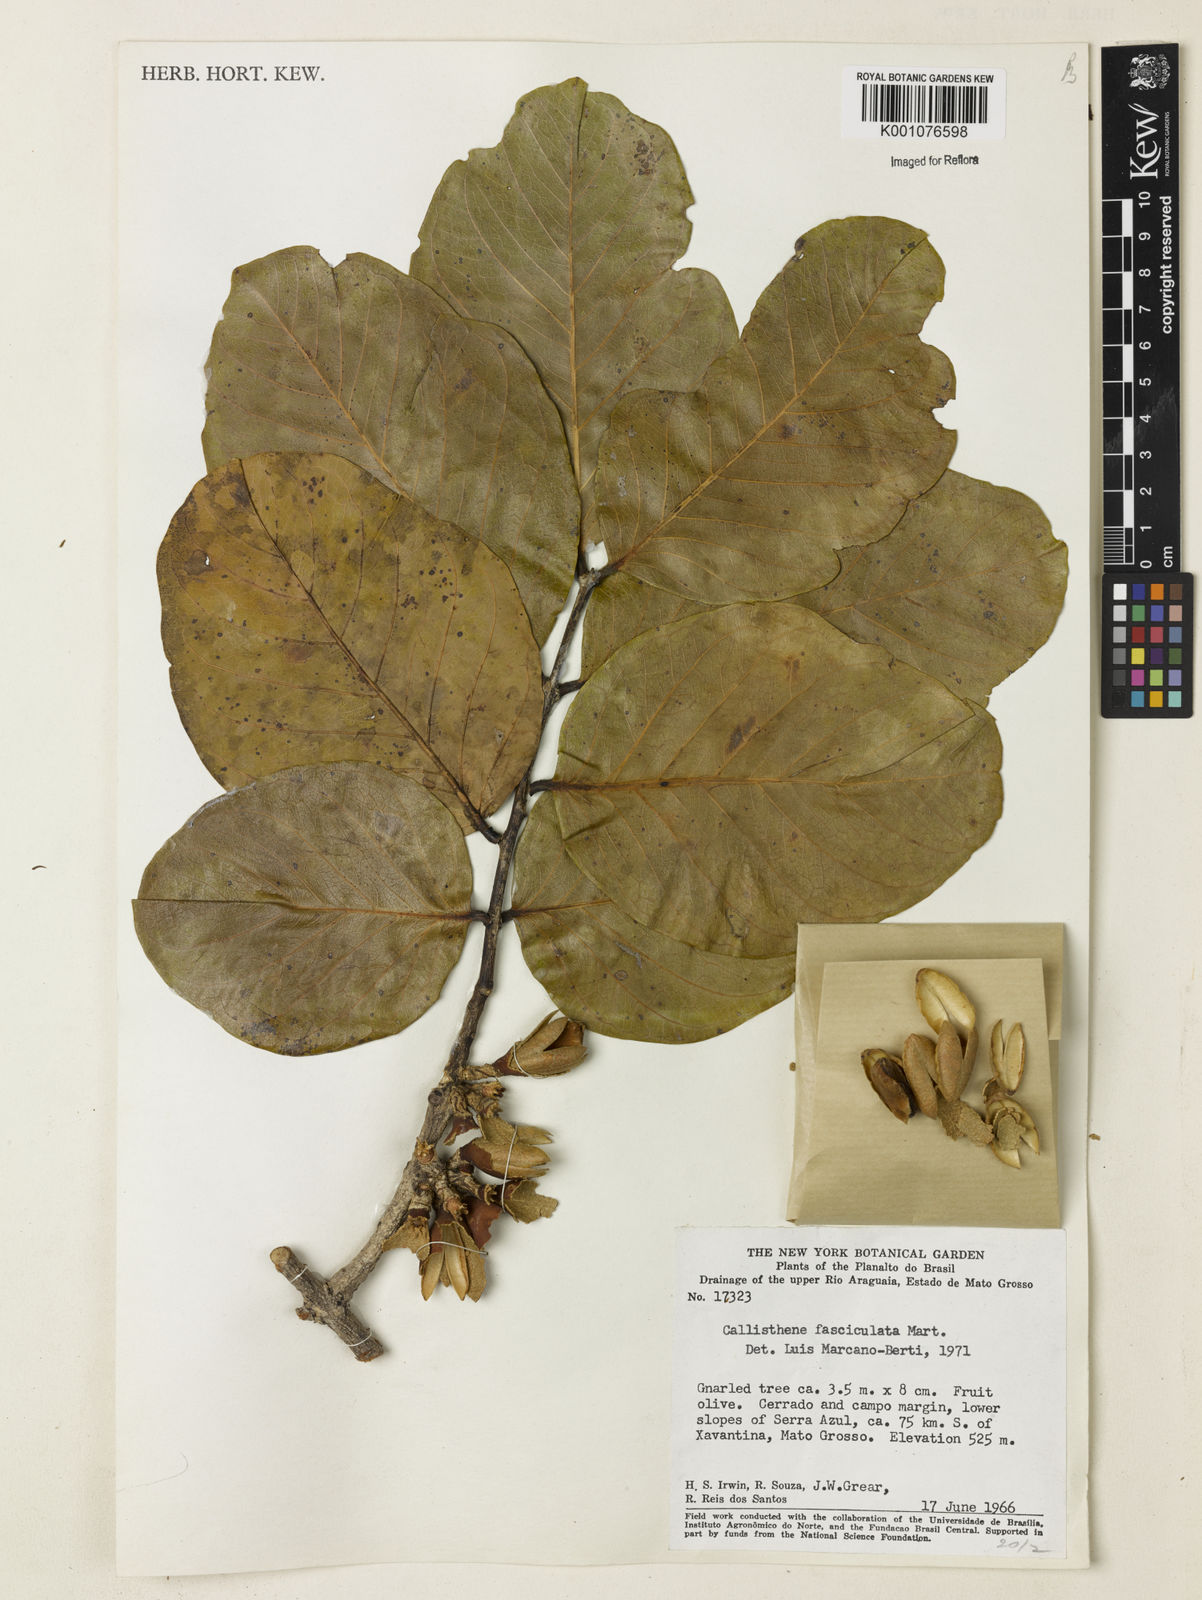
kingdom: Plantae
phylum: Tracheophyta
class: Magnoliopsida
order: Myrtales
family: Vochysiaceae
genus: Callisthene
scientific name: Callisthene fasciculata
